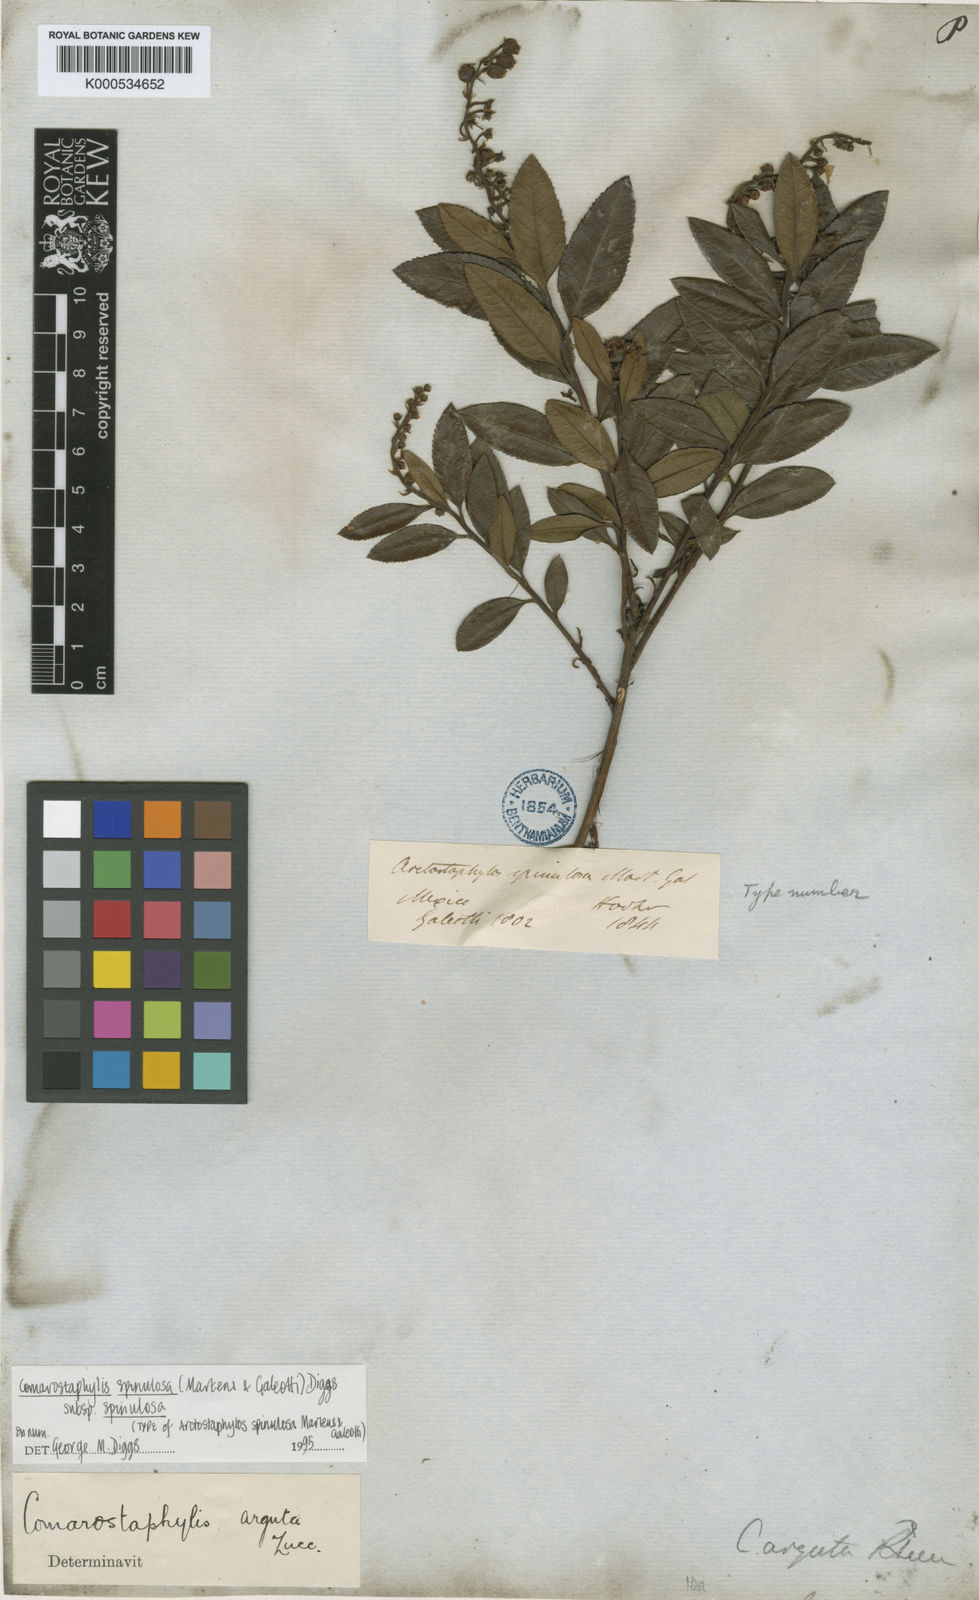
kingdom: Plantae
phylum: Tracheophyta
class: Magnoliopsida
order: Ericales
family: Ericaceae
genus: Comarostaphylis
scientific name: Comarostaphylis spinulosa
